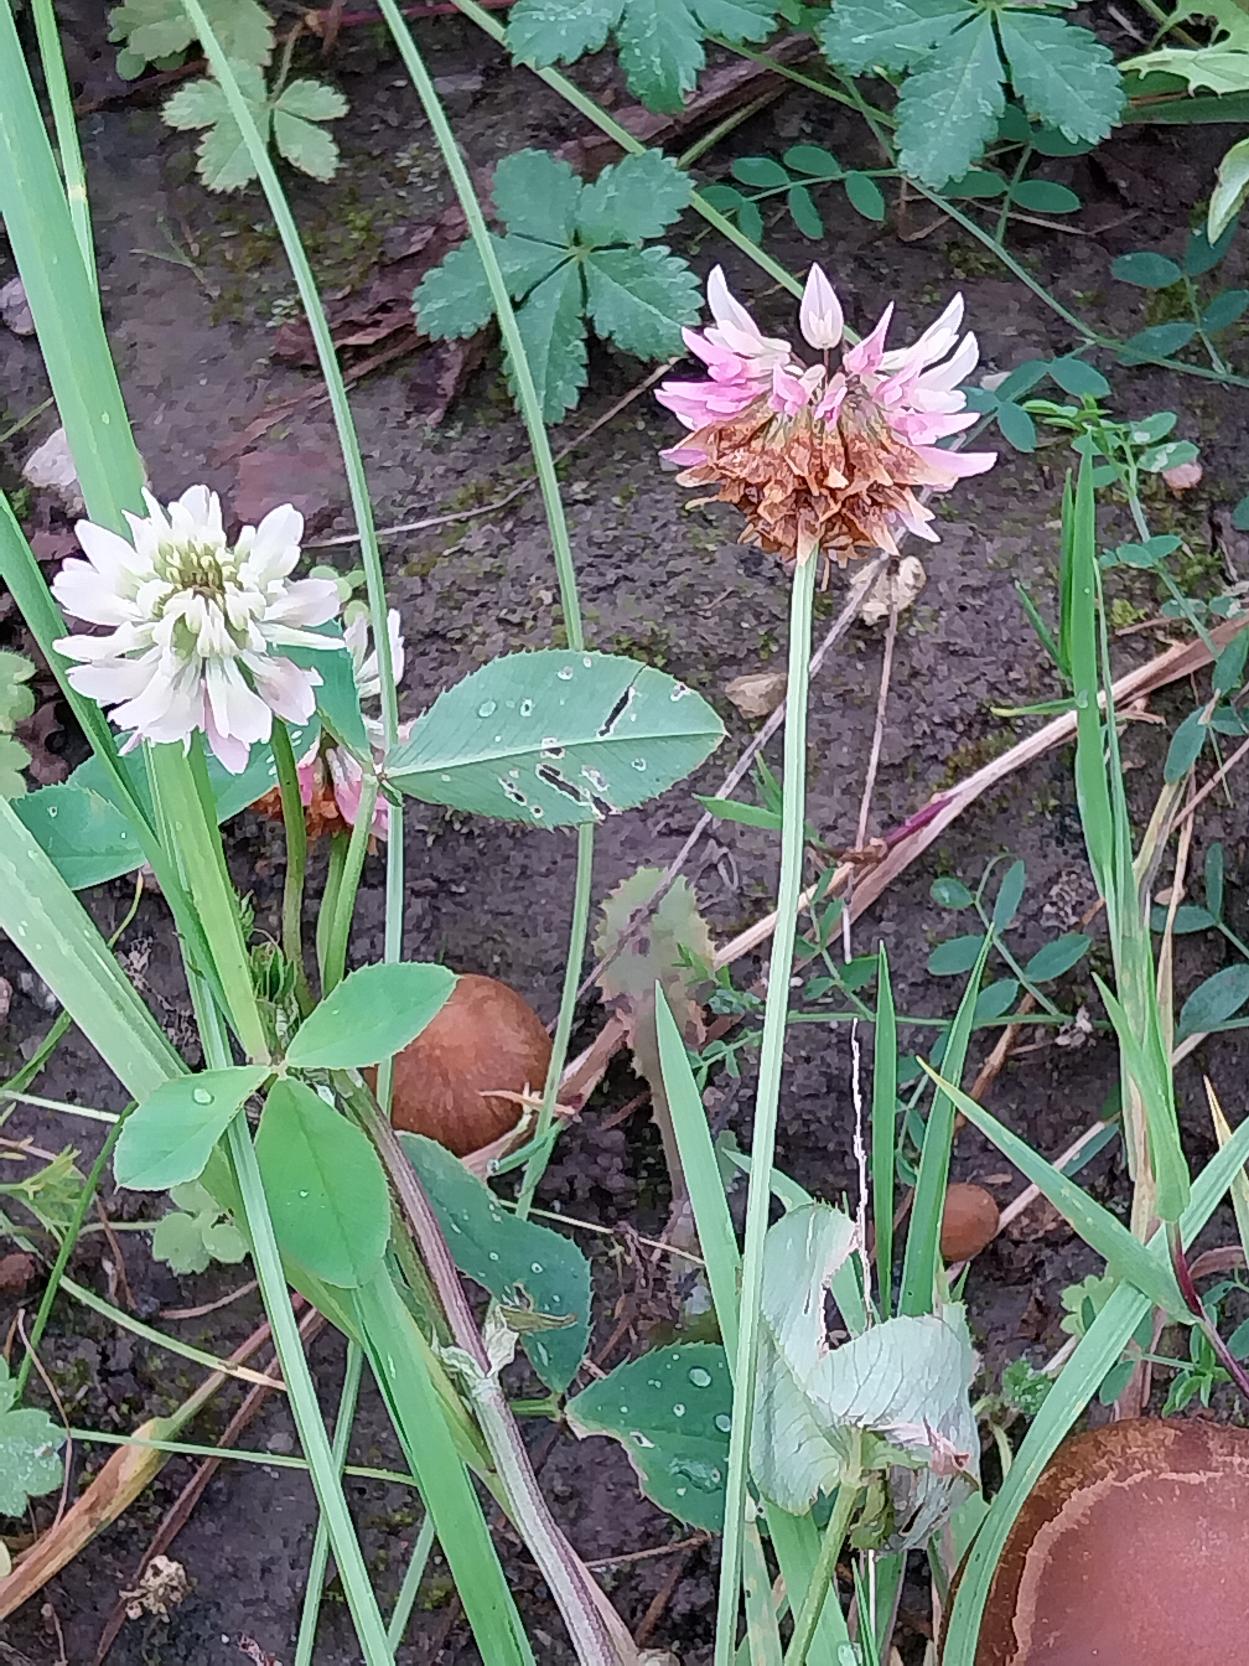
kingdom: Plantae
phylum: Tracheophyta
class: Magnoliopsida
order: Fabales
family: Fabaceae
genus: Trifolium
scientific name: Trifolium hybridum
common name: Alsike-kløver
